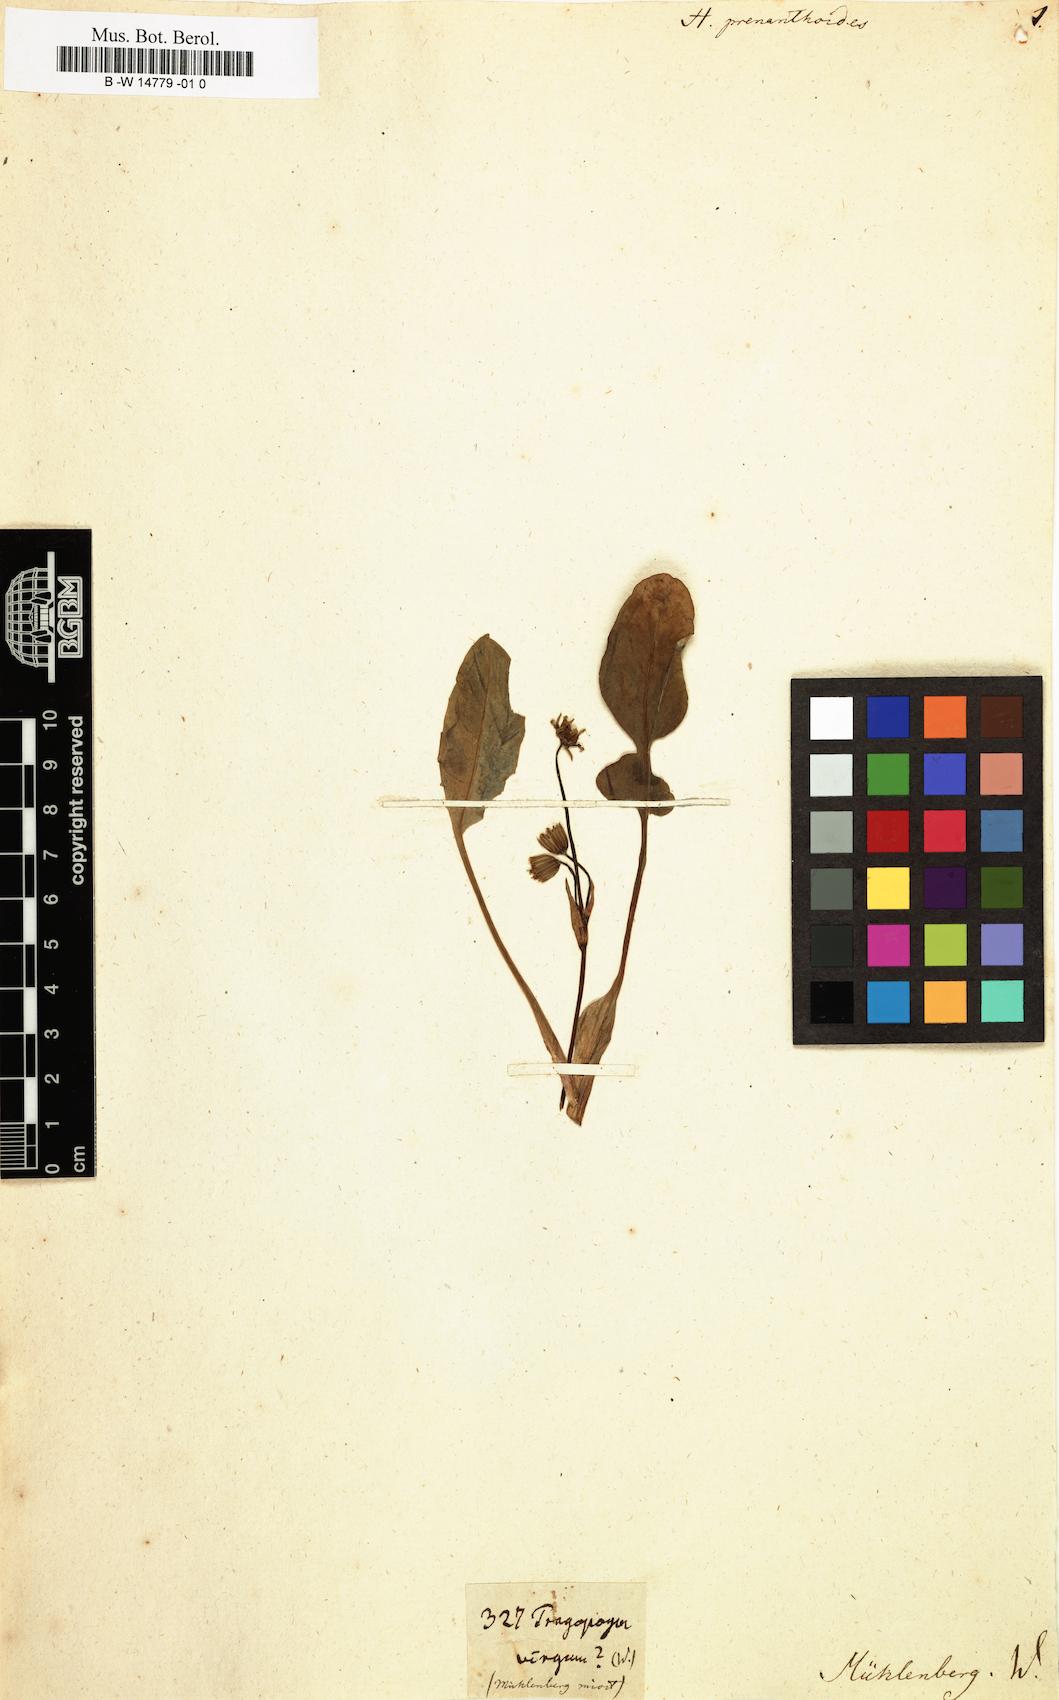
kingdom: Plantae
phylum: Tracheophyta
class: Magnoliopsida
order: Asterales
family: Asteraceae
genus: Krigia
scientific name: Krigia biflora
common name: Orange dwarf-dandelion
